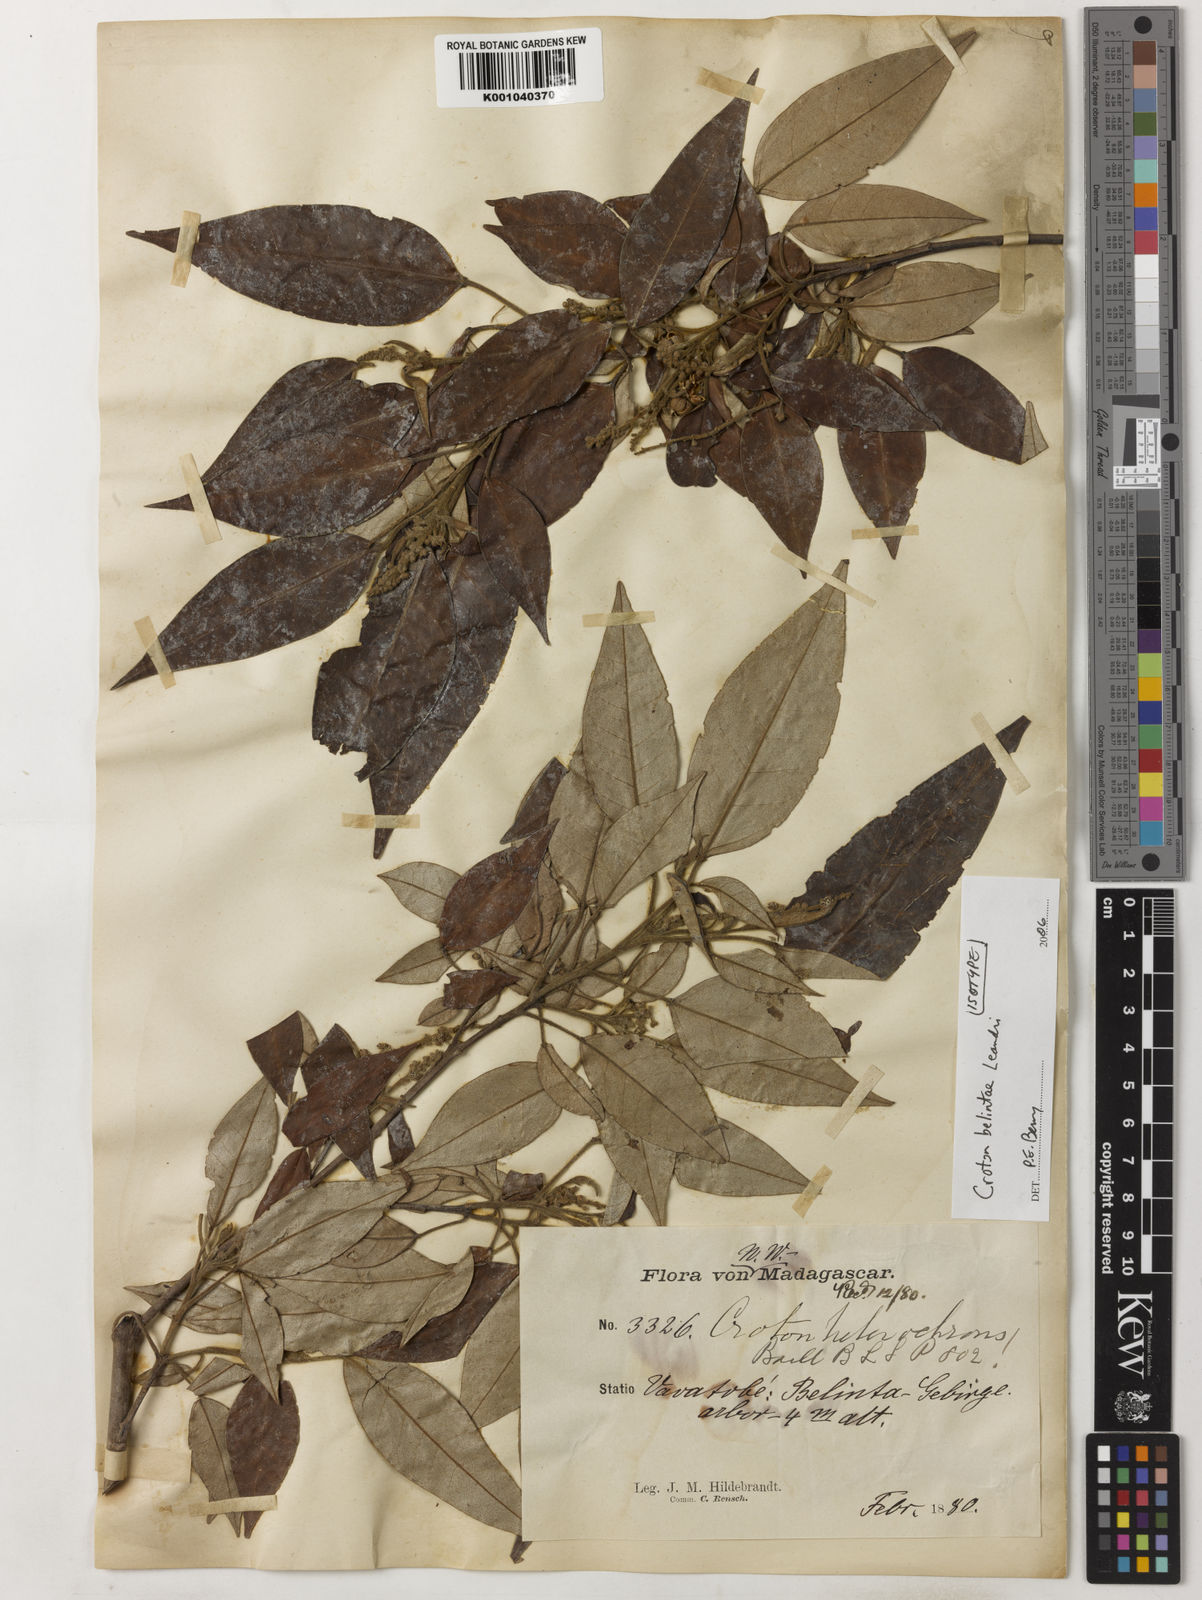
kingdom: Plantae
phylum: Tracheophyta
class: Magnoliopsida
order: Malpighiales
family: Euphorbiaceae
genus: Croton
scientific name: Croton hildebrandtii
